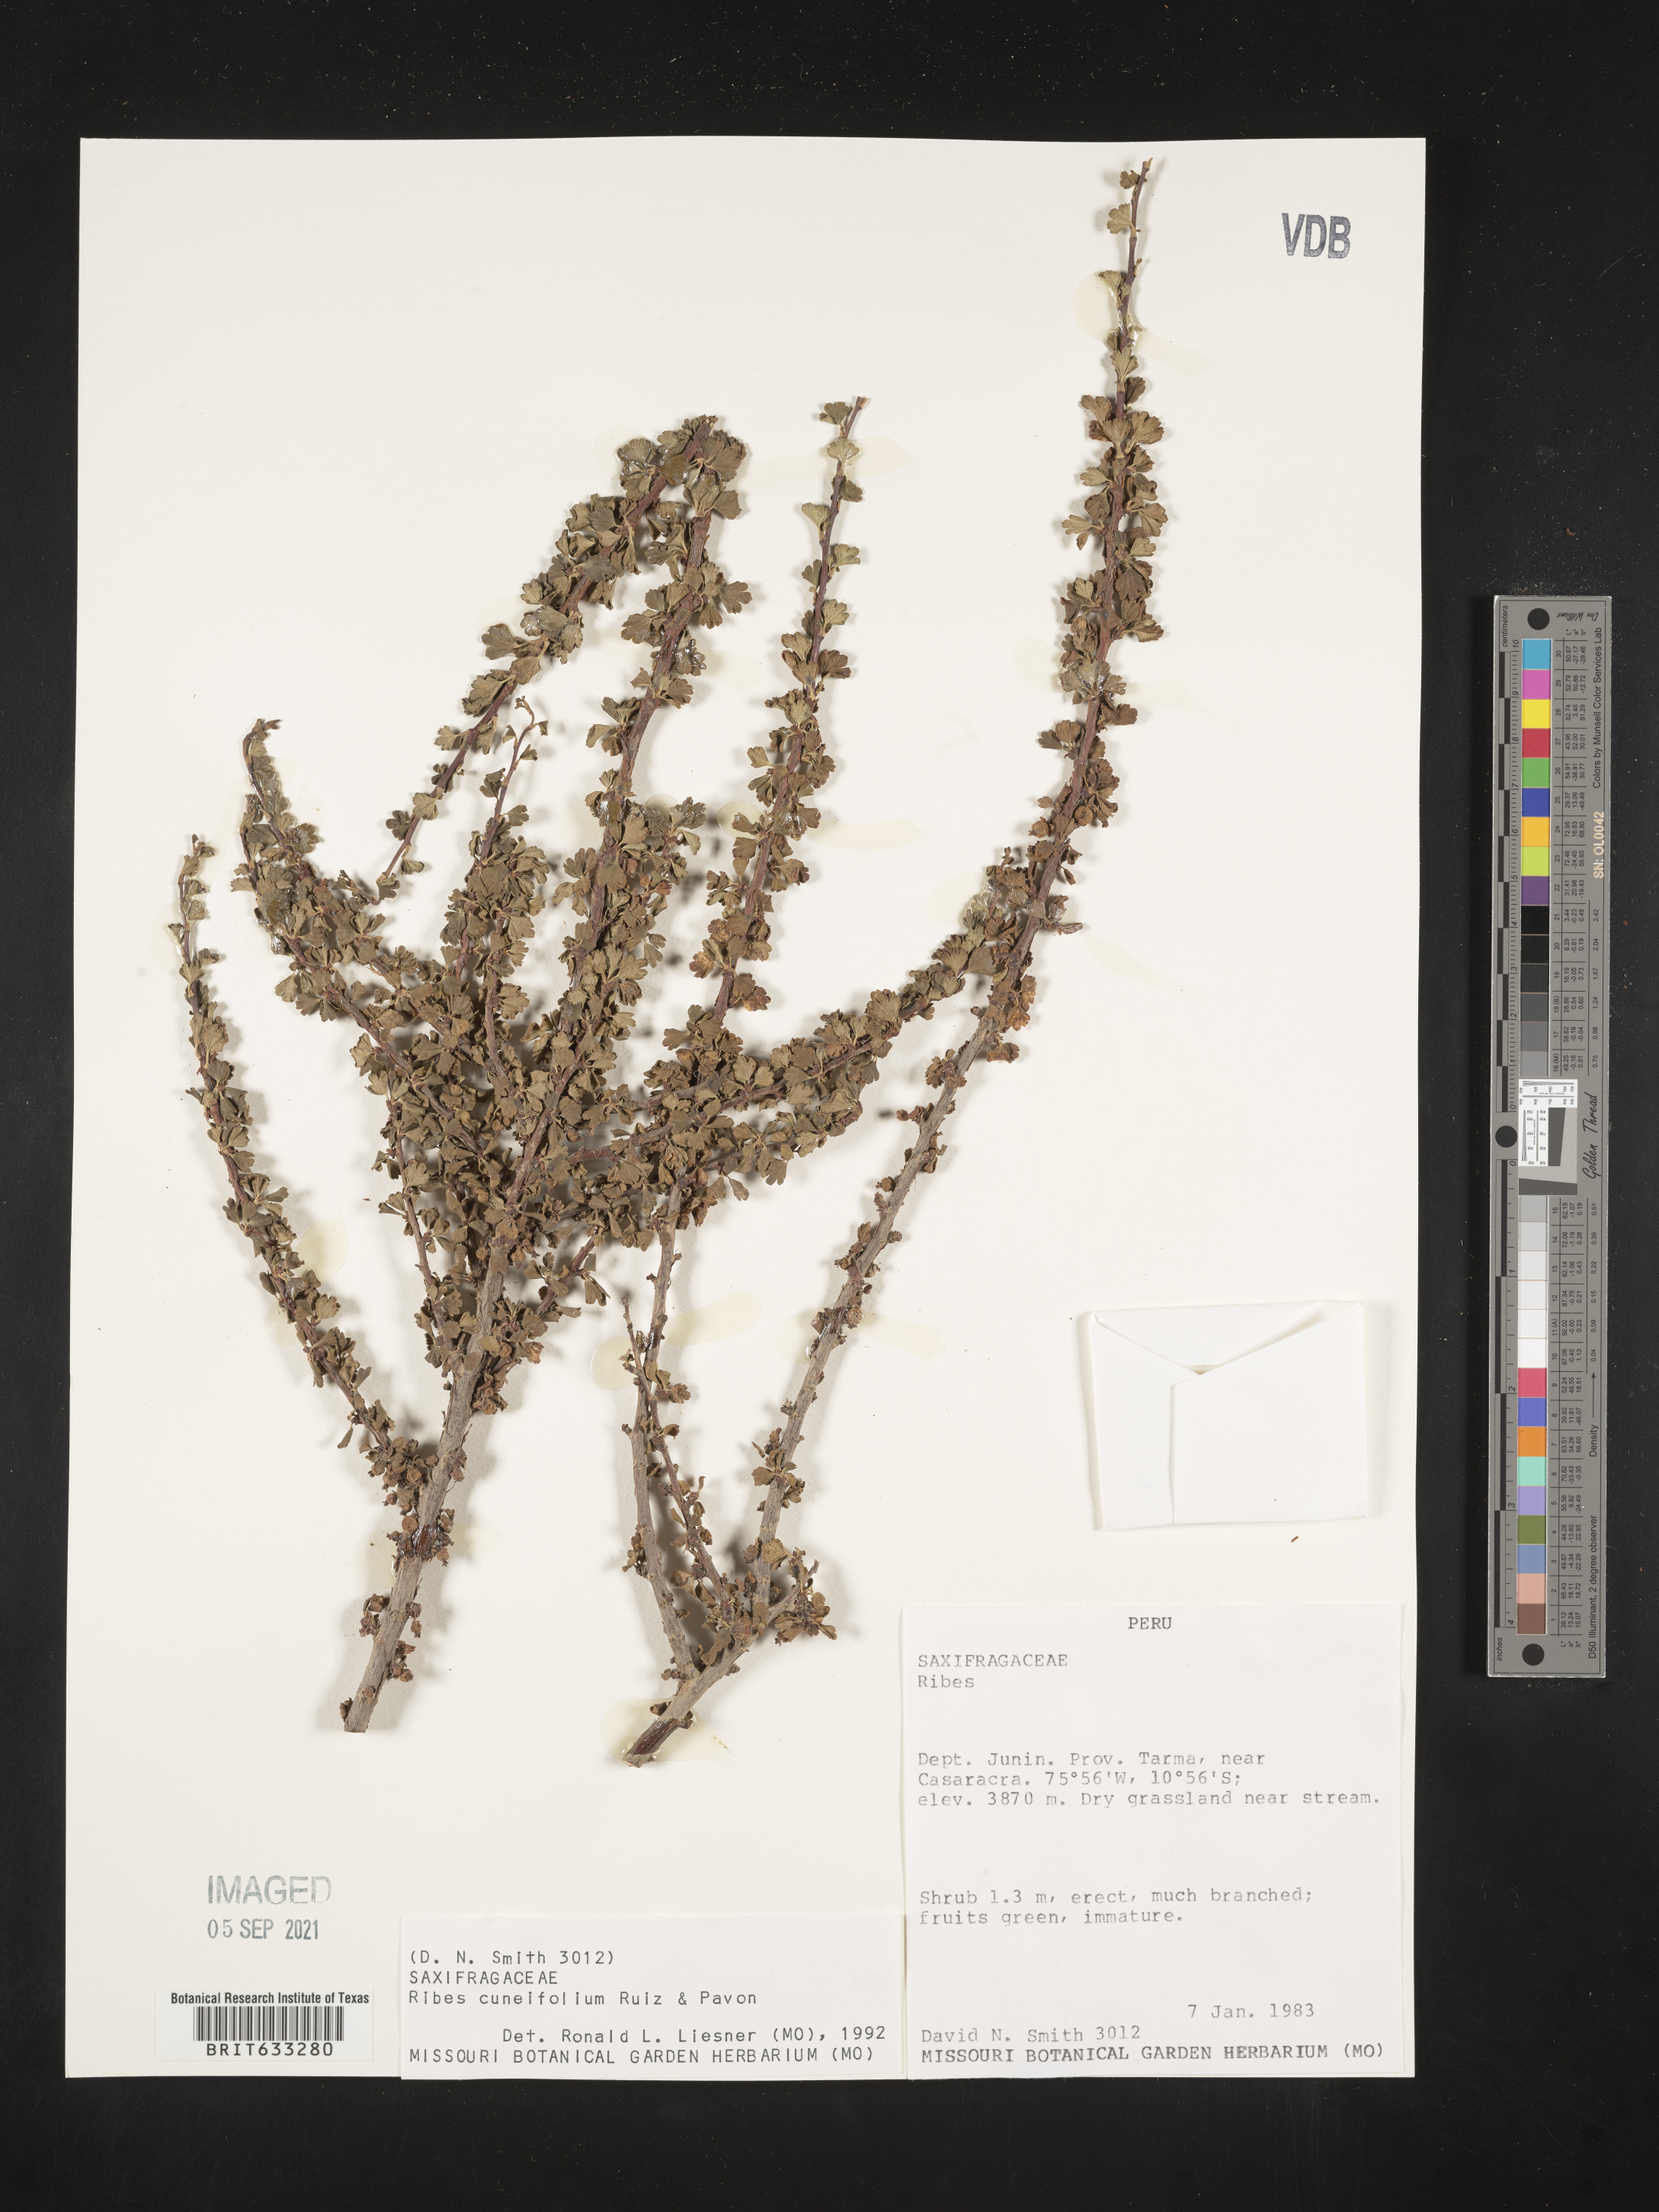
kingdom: Plantae
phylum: Tracheophyta
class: Magnoliopsida
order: Saxifragales
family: Grossulariaceae
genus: Ribes
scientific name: Ribes
